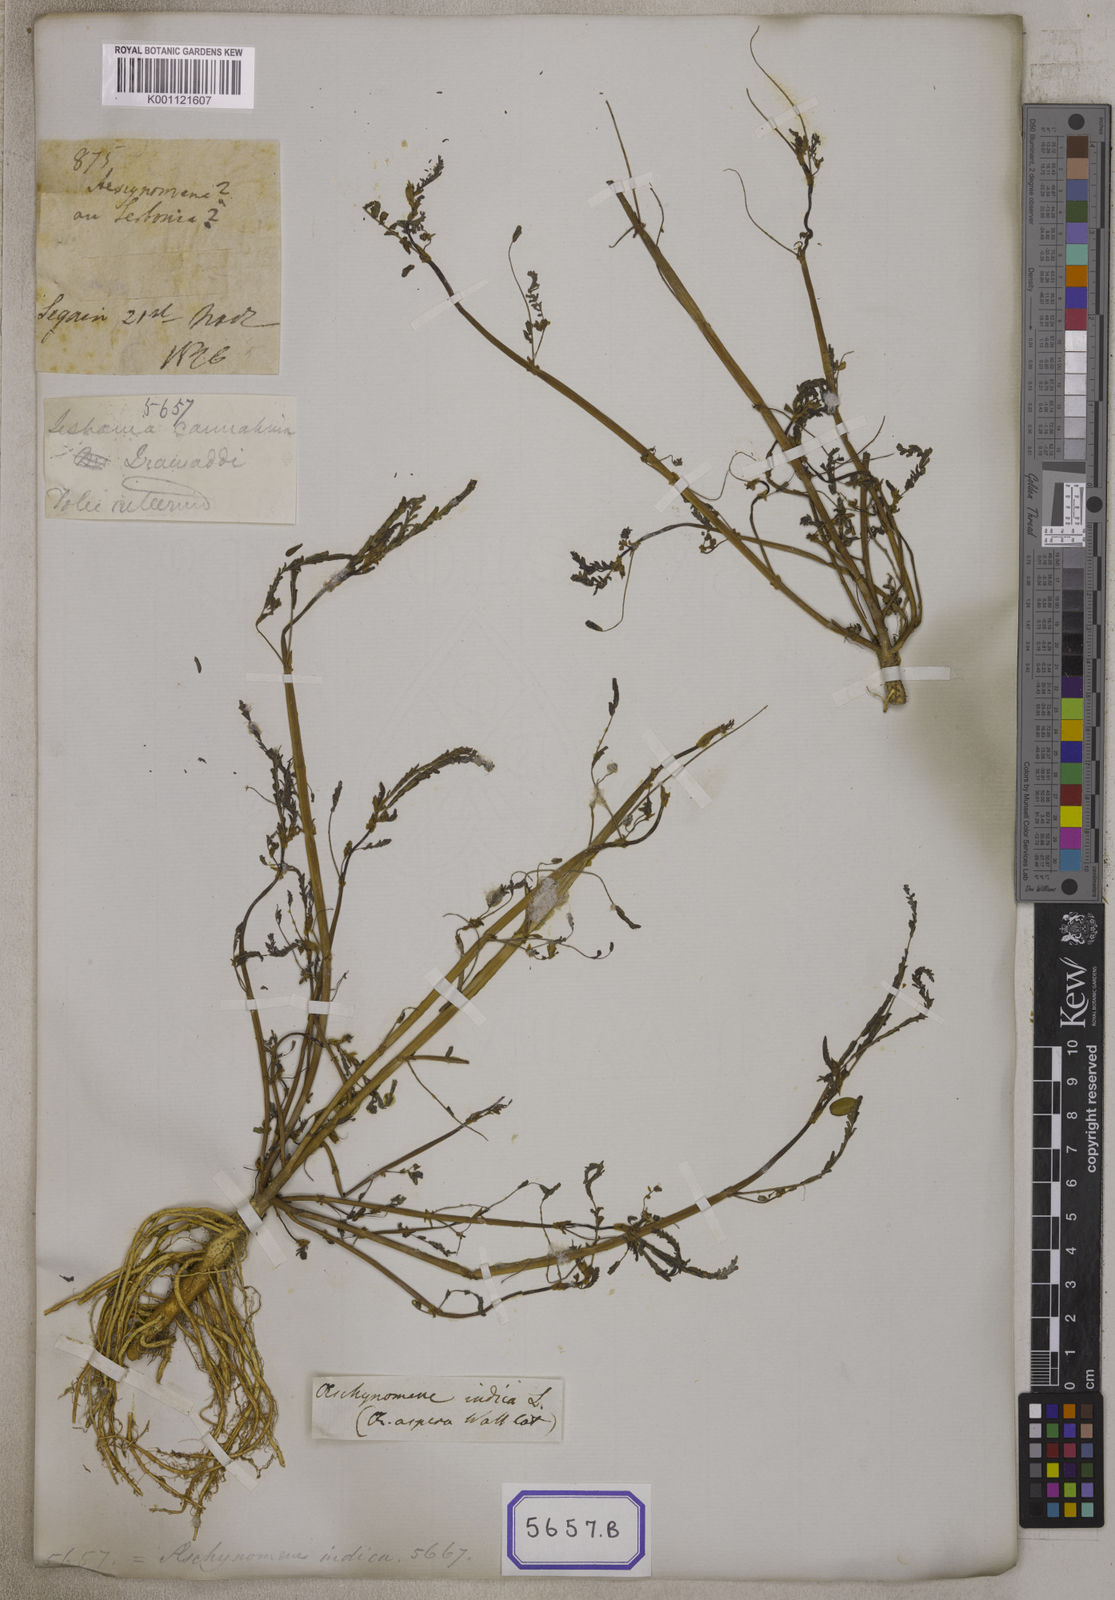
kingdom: Plantae
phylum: Tracheophyta
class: Magnoliopsida
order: Fabales
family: Fabaceae
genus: Sesbania
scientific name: Sesbania
